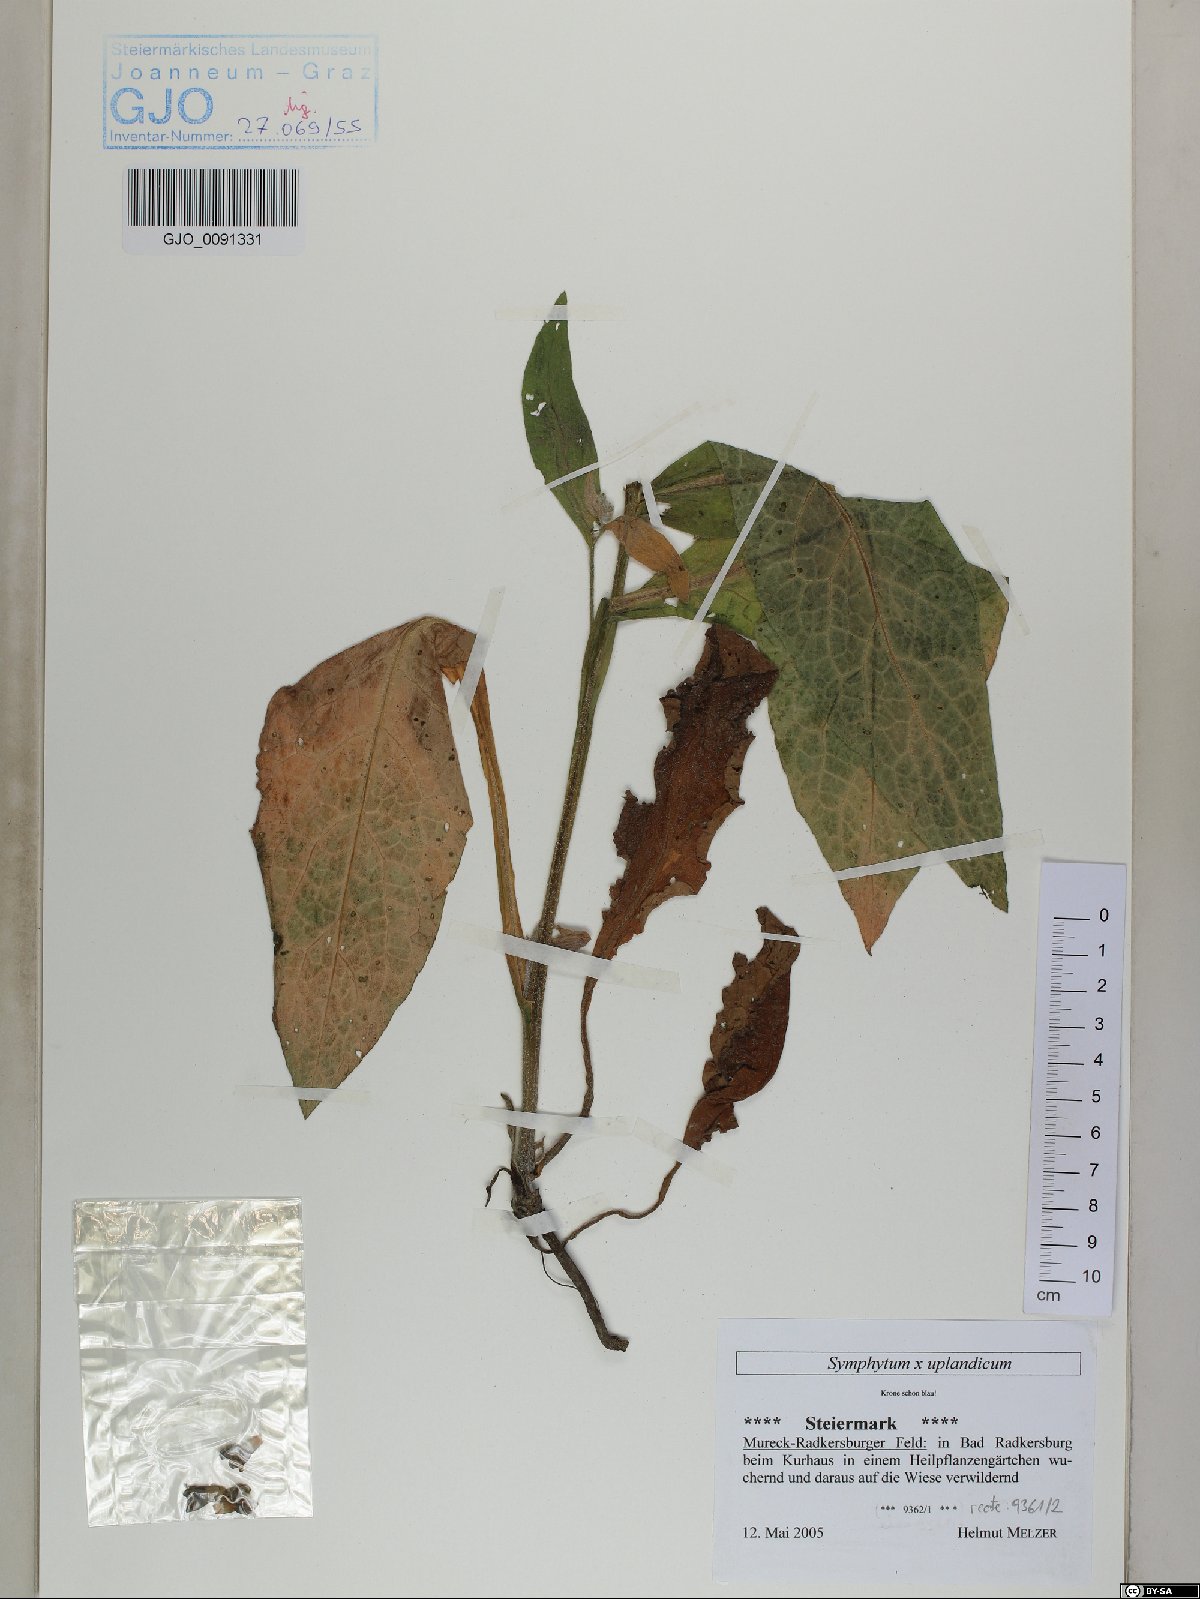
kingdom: Plantae
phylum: Tracheophyta
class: Magnoliopsida
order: Boraginales
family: Boraginaceae
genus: Symphytum
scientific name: Symphytum uplandicum
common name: Russian comfrey
